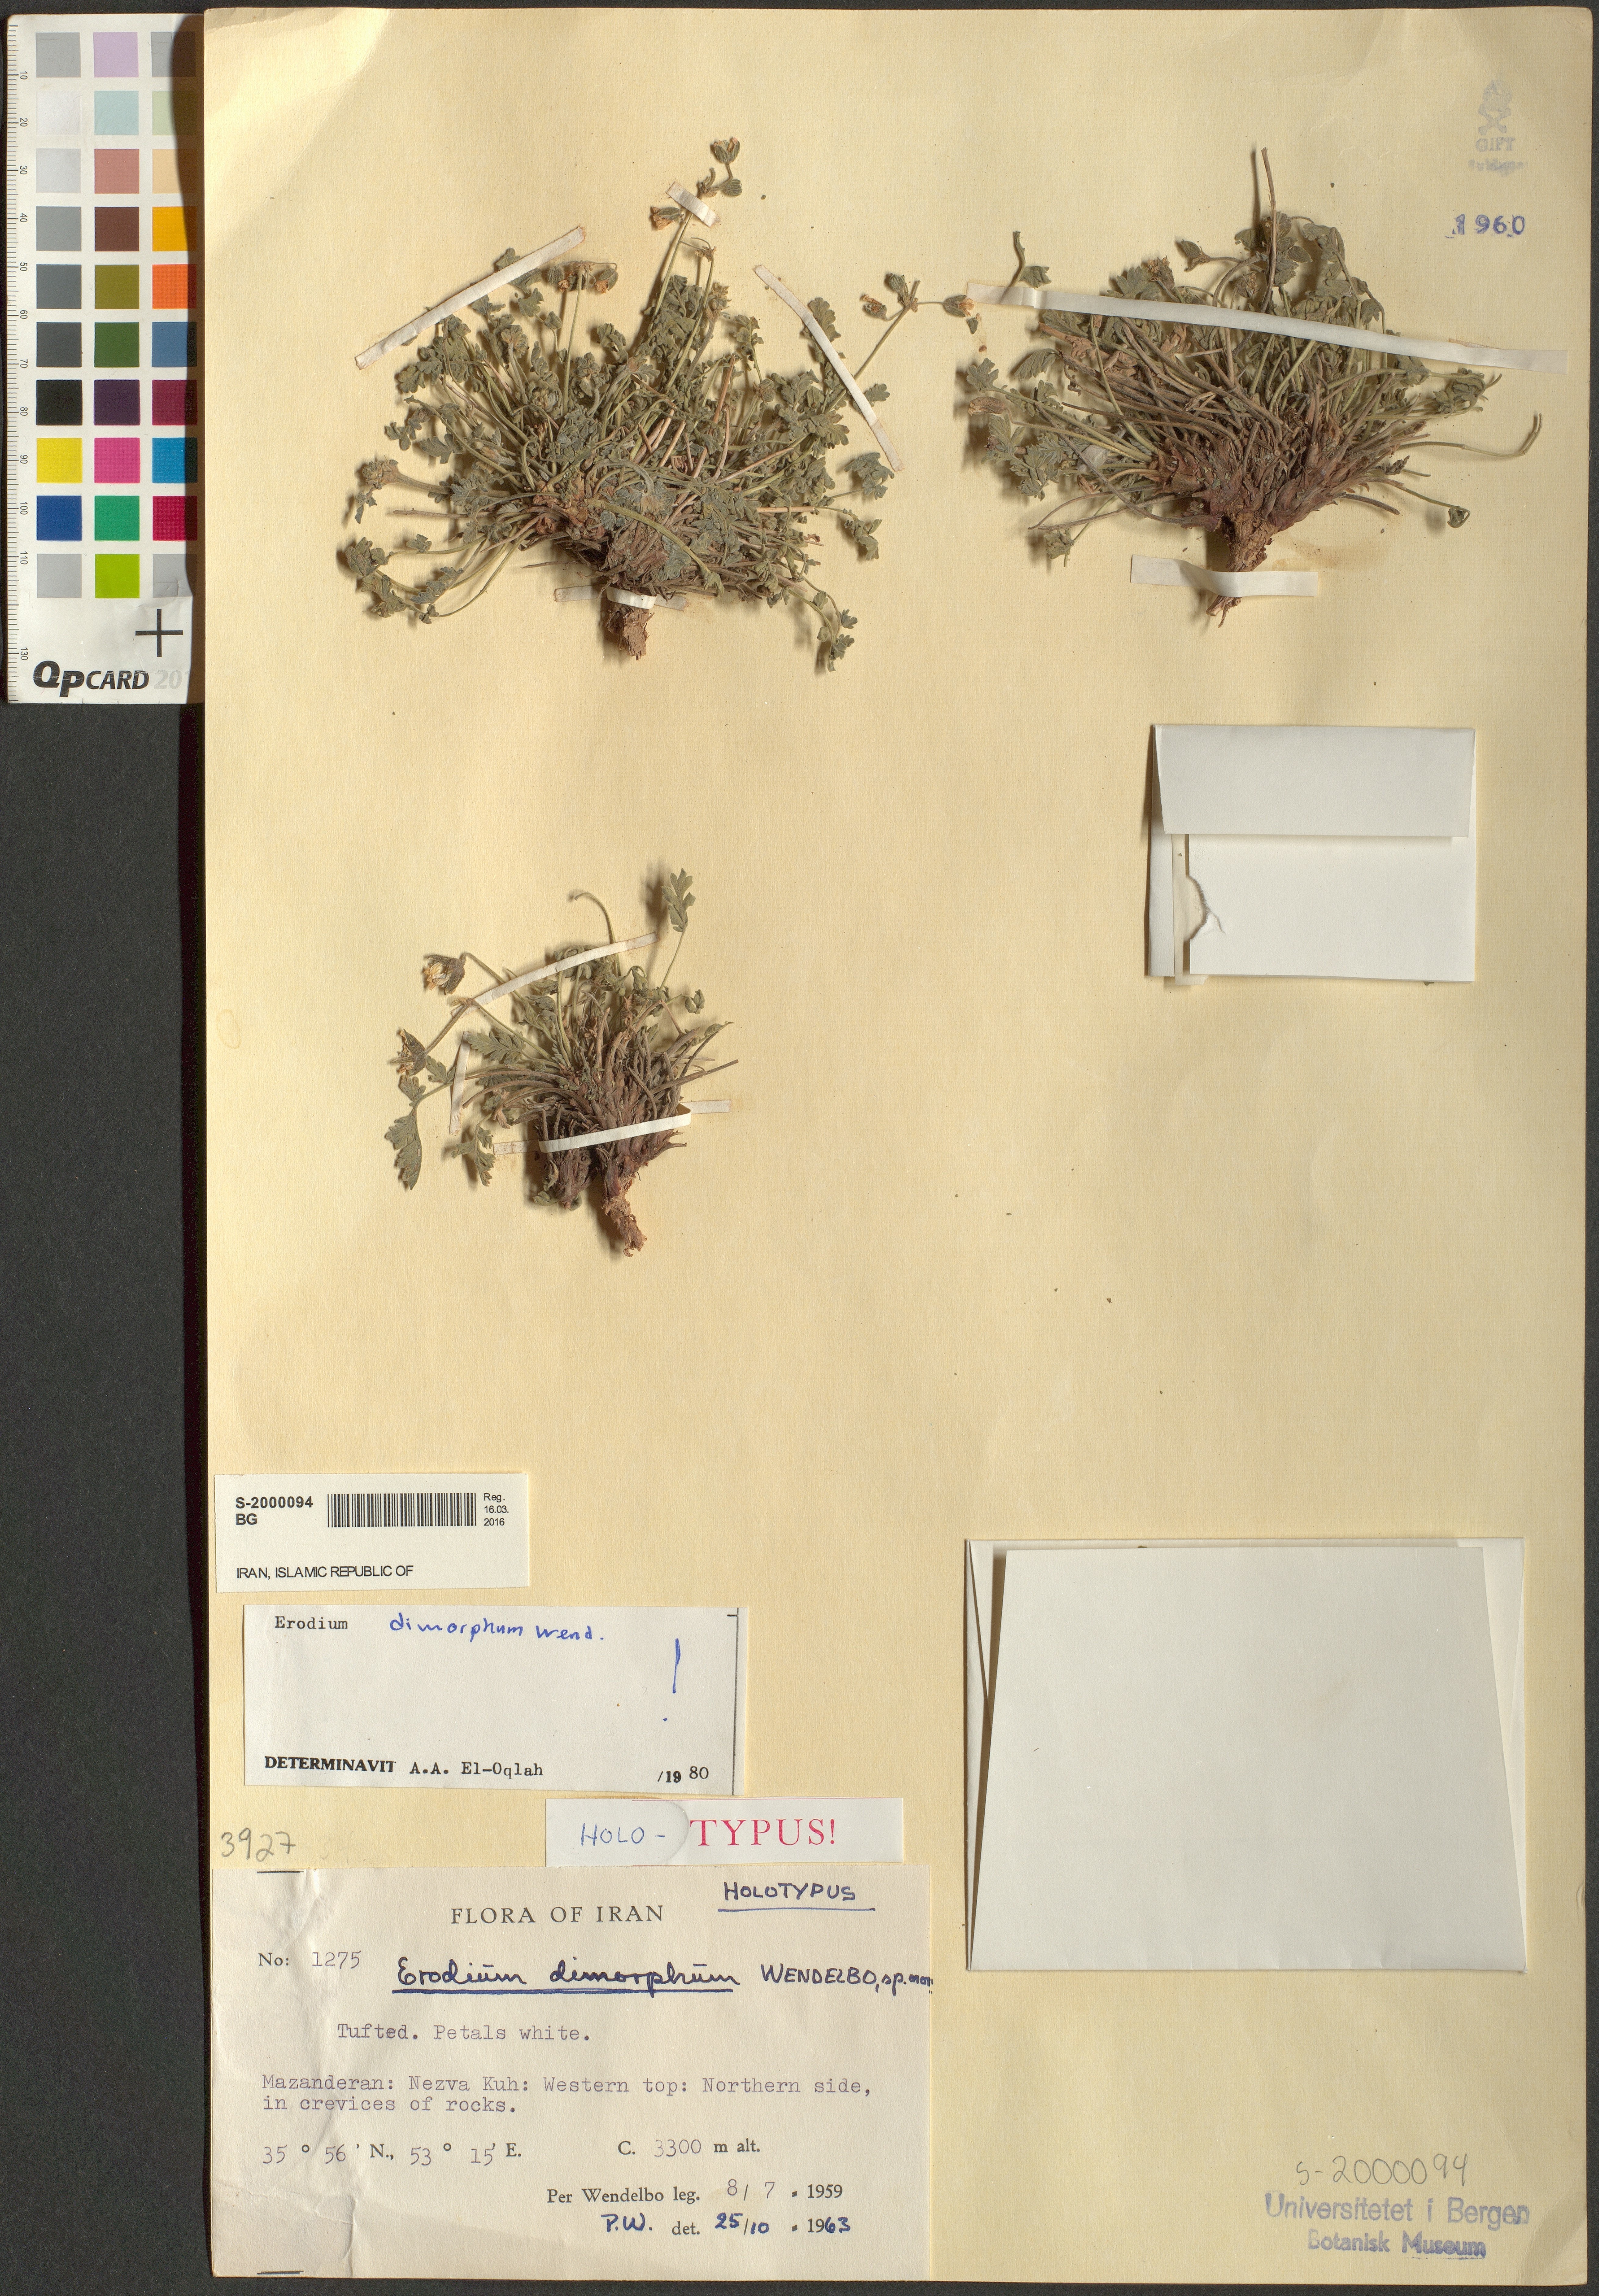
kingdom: Plantae
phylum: Tracheophyta
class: Magnoliopsida
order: Geraniales
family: Geraniaceae
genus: Erodium
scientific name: Erodium dimorphum
